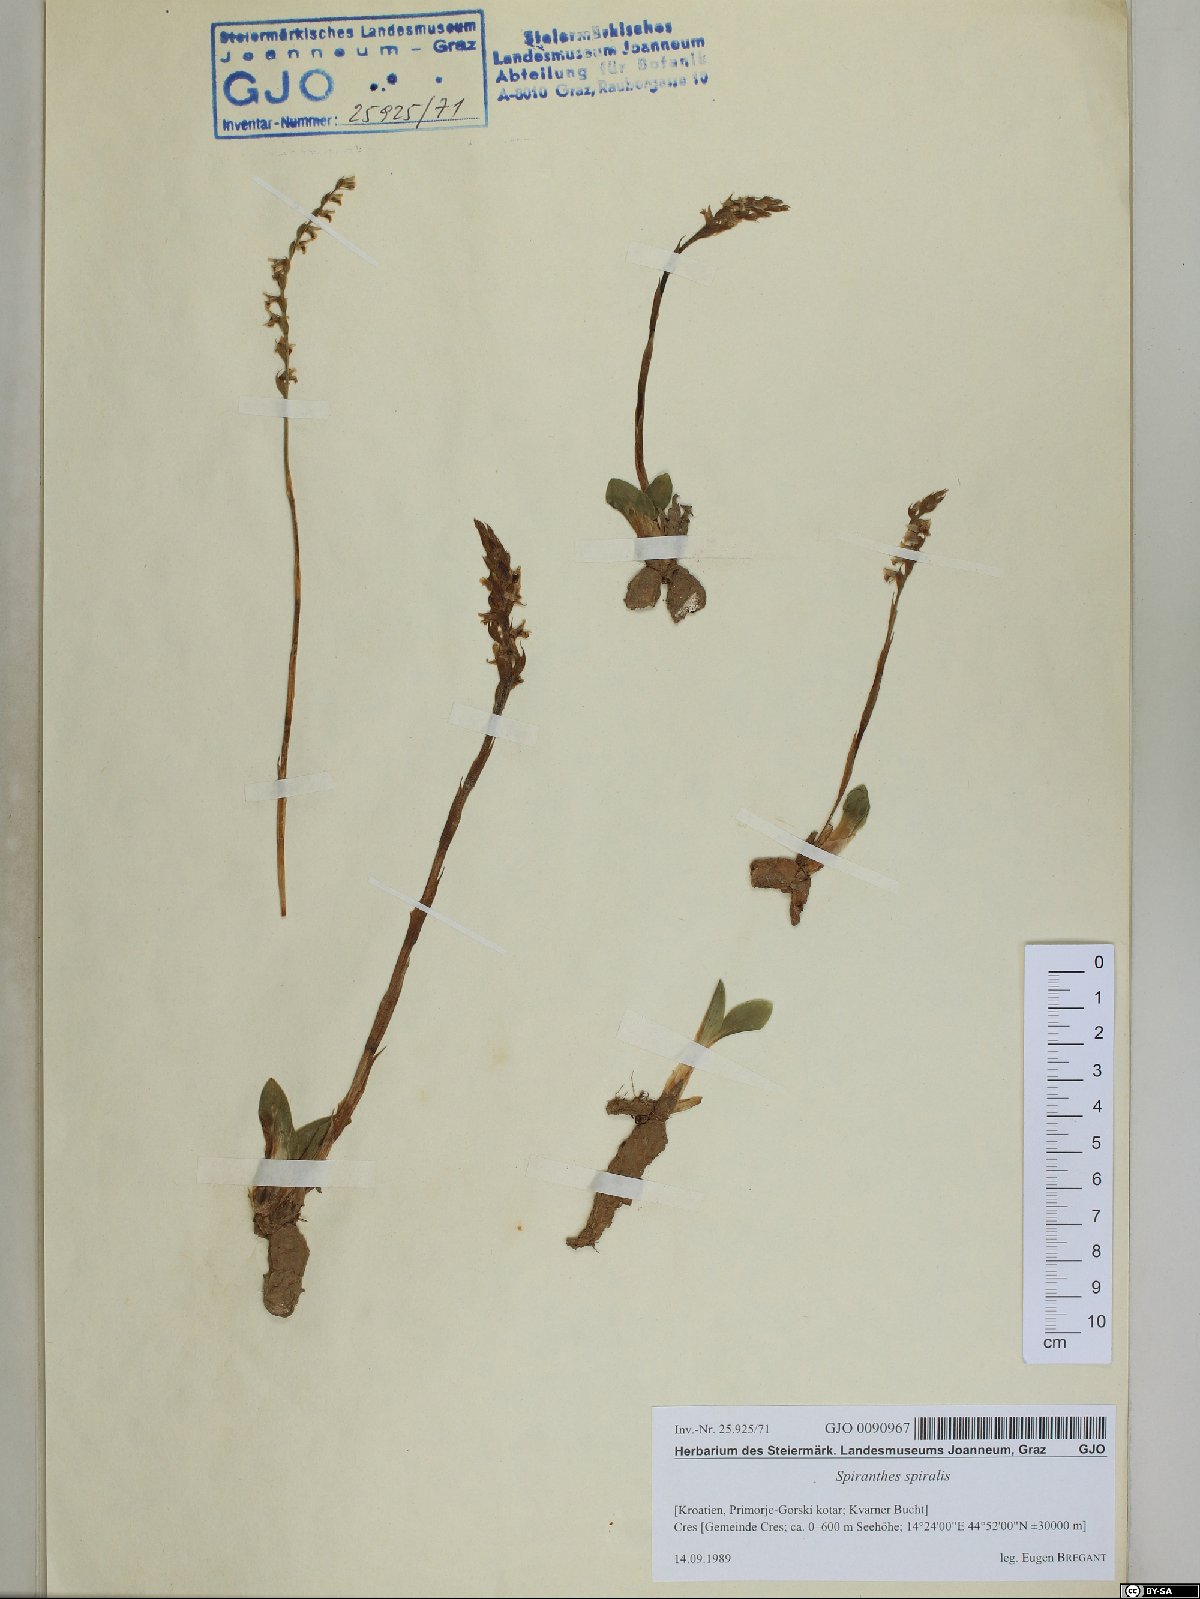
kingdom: Plantae
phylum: Tracheophyta
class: Liliopsida
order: Asparagales
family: Orchidaceae
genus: Spiranthes
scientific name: Spiranthes spiralis
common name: Autumn lady's-tresses
